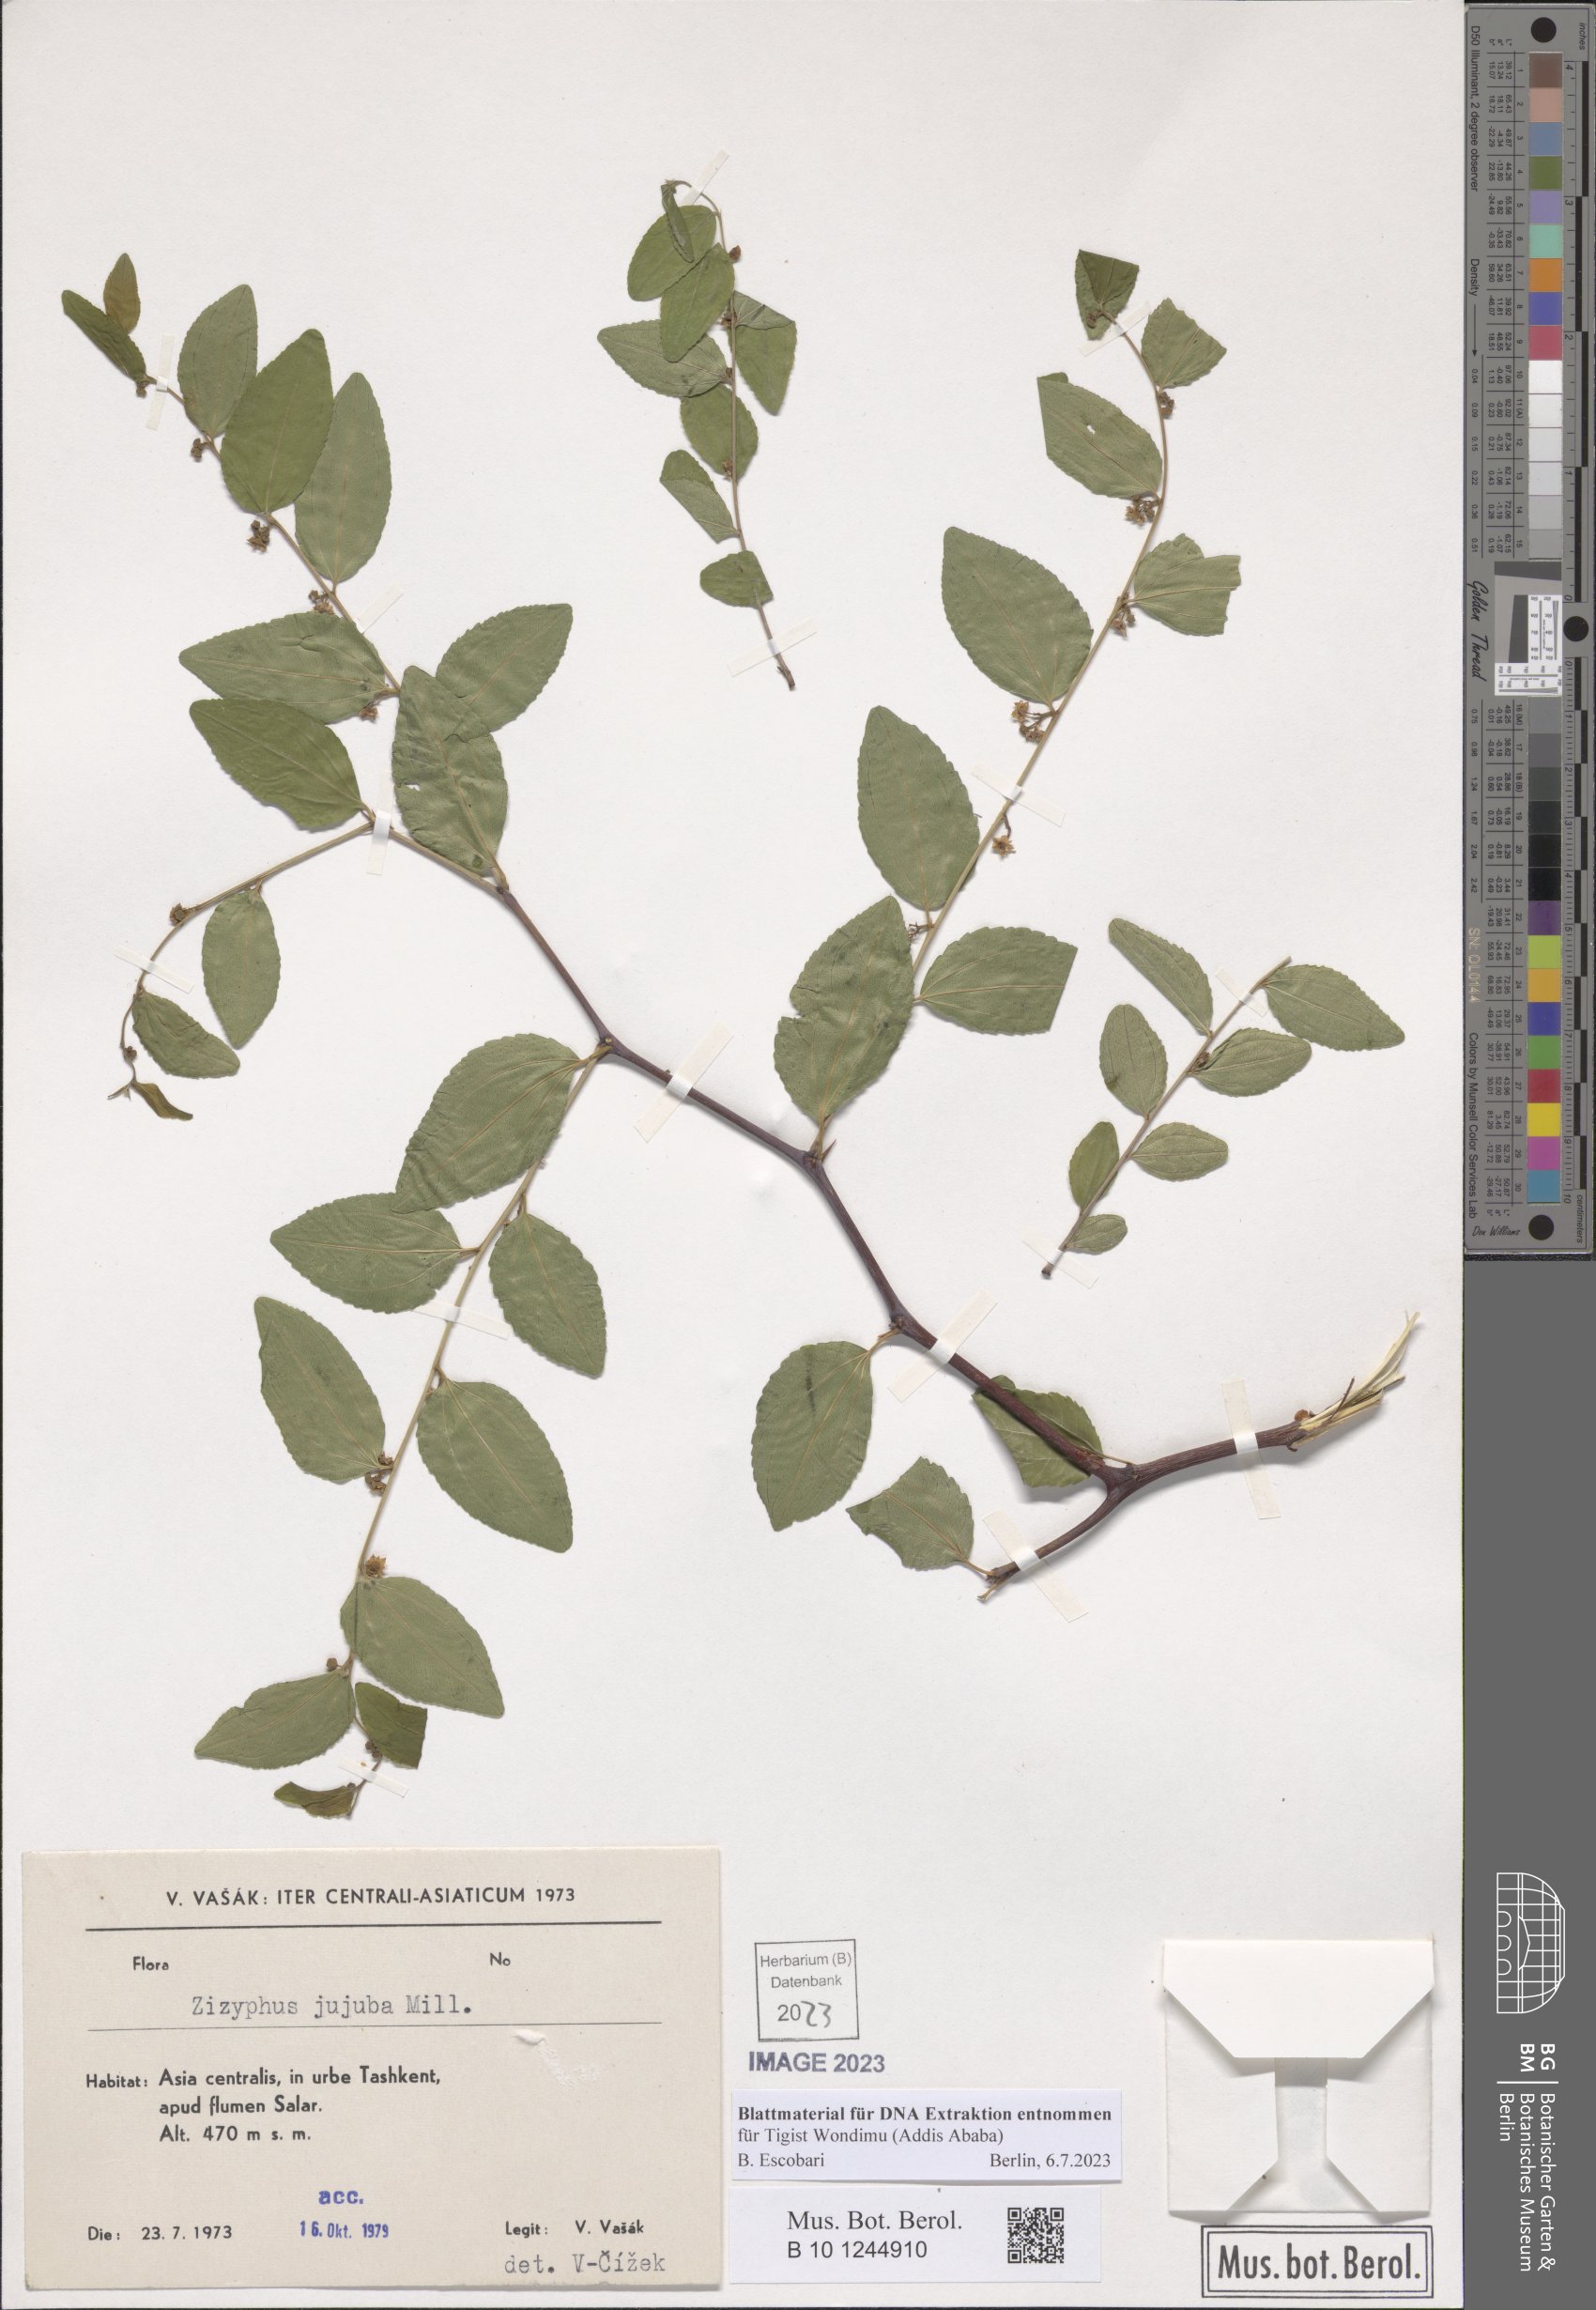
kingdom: Plantae
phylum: Tracheophyta
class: Magnoliopsida
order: Rosales
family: Rhamnaceae
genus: Ziziphus
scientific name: Ziziphus jujuba
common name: Jujube red date
